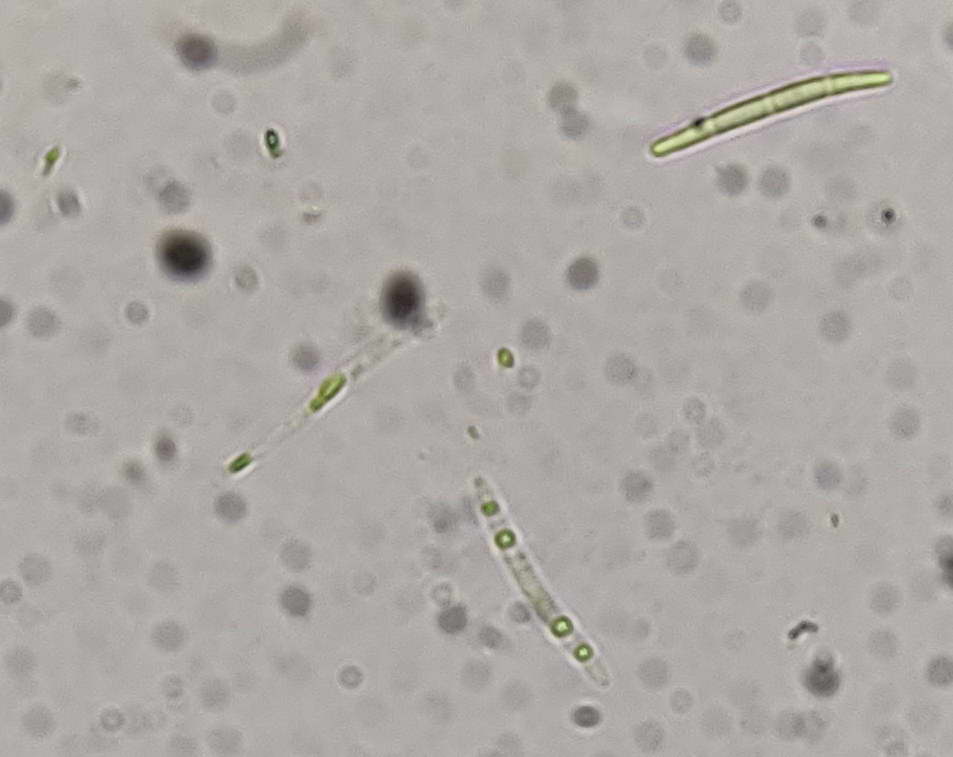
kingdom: Fungi
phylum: Ascomycota
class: Leotiomycetes
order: Helotiales
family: Lachnaceae
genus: Lachnum
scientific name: Lachnum sulphureum
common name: svovlhåret frynseskive
